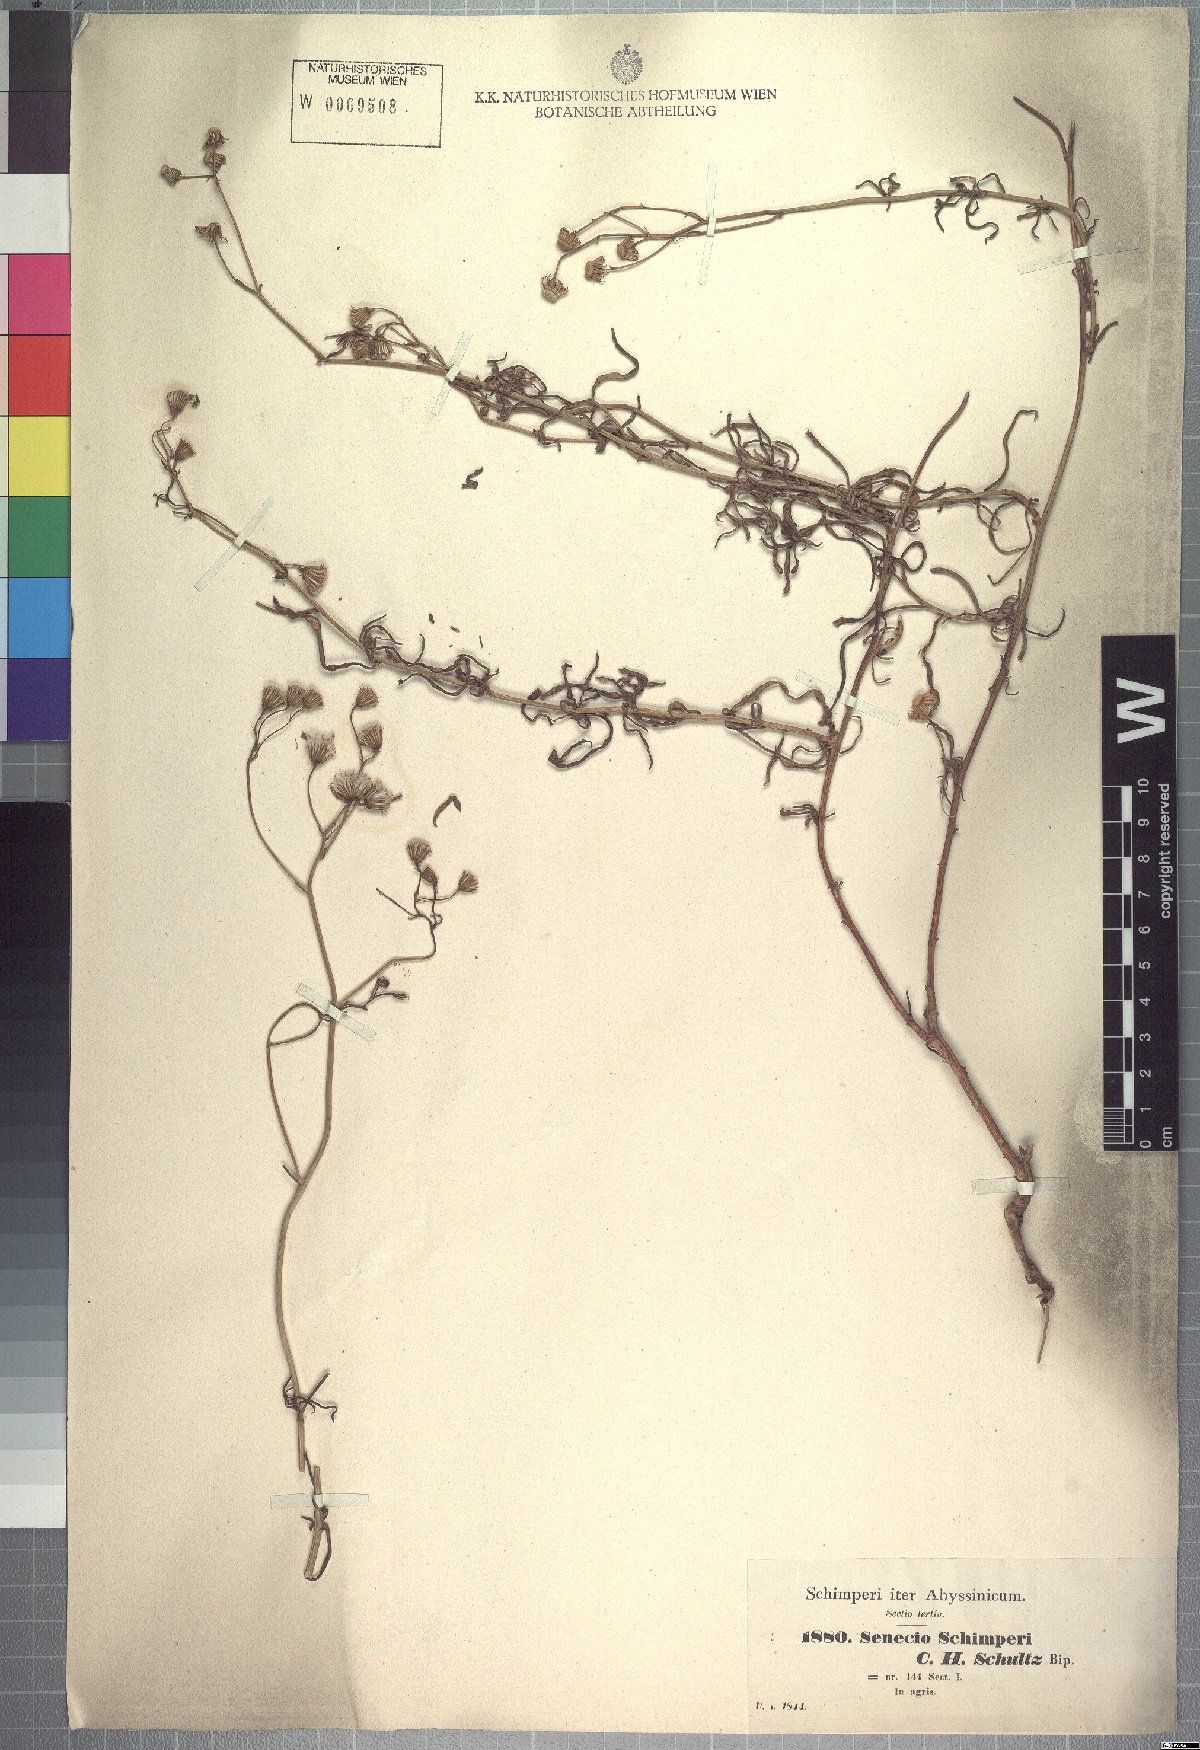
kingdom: Plantae
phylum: Tracheophyta
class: Magnoliopsida
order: Asterales
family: Asteraceae
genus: Senecio
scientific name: Senecio schimperi
